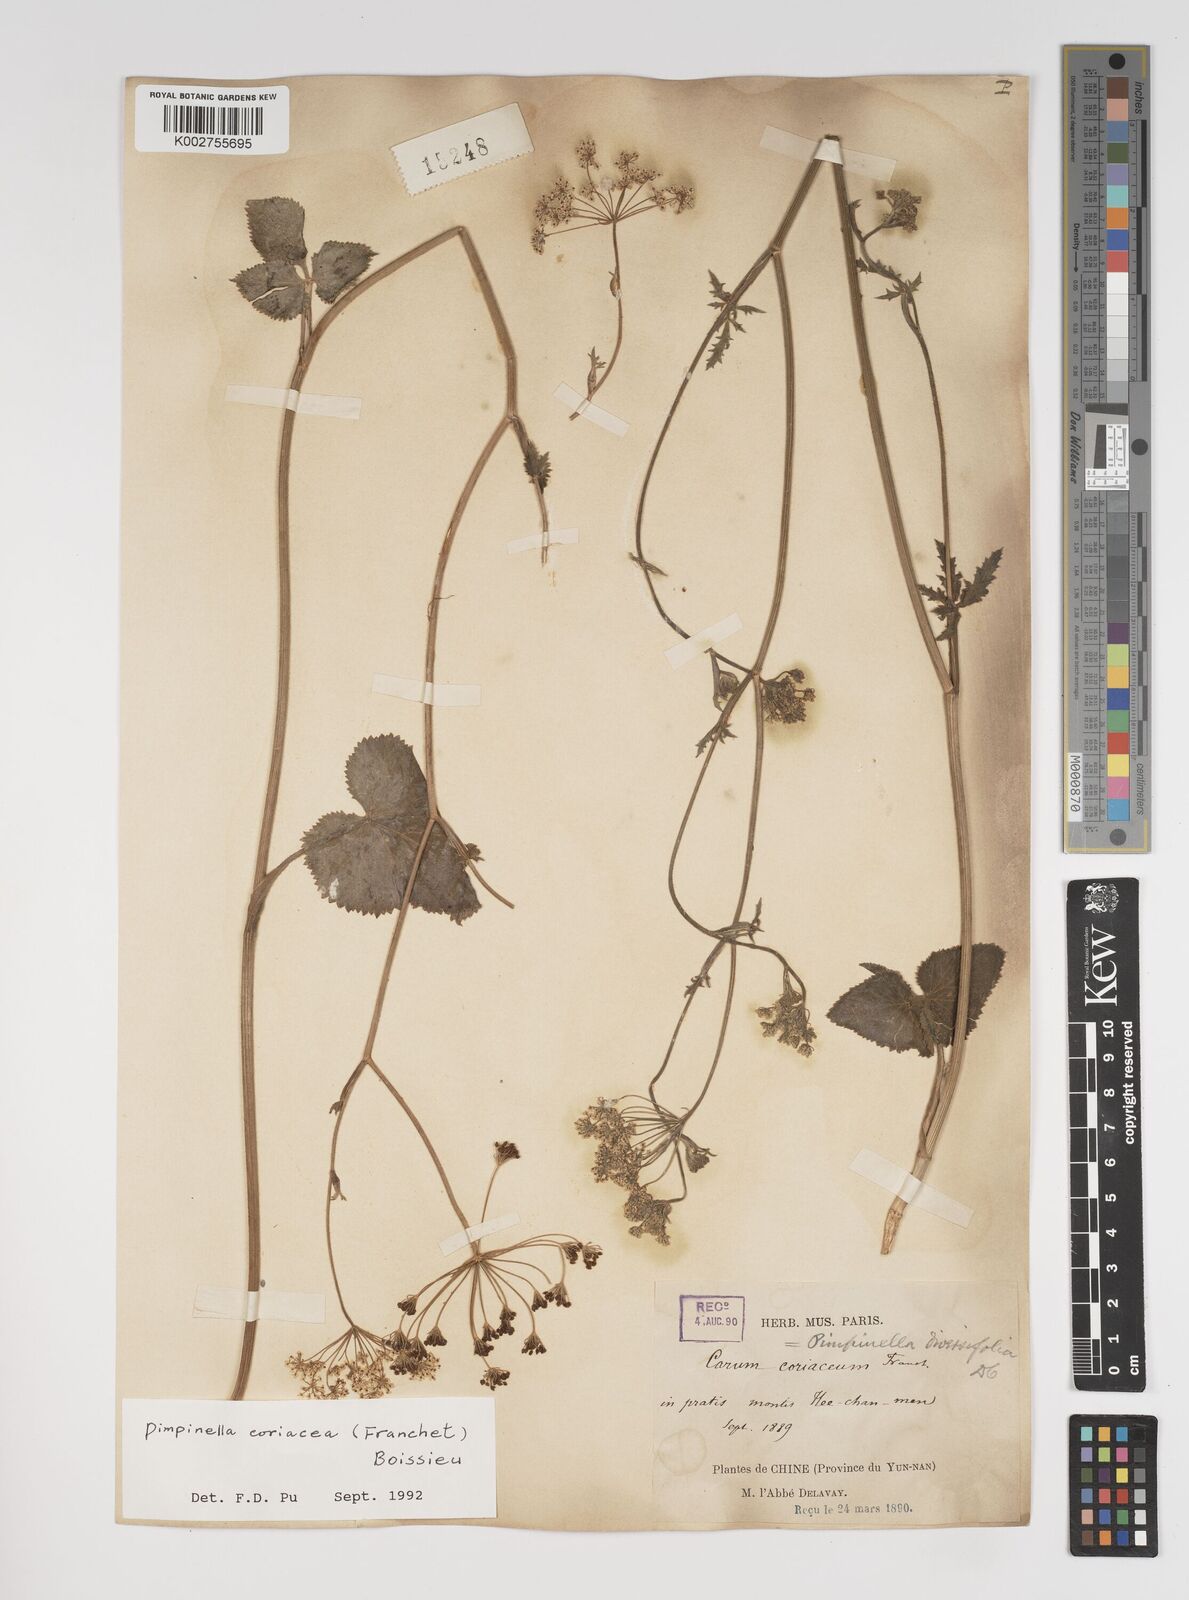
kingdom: Plantae
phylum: Tracheophyta
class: Magnoliopsida
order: Apiales
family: Apiaceae
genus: Pimpinella
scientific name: Pimpinella coriacea
